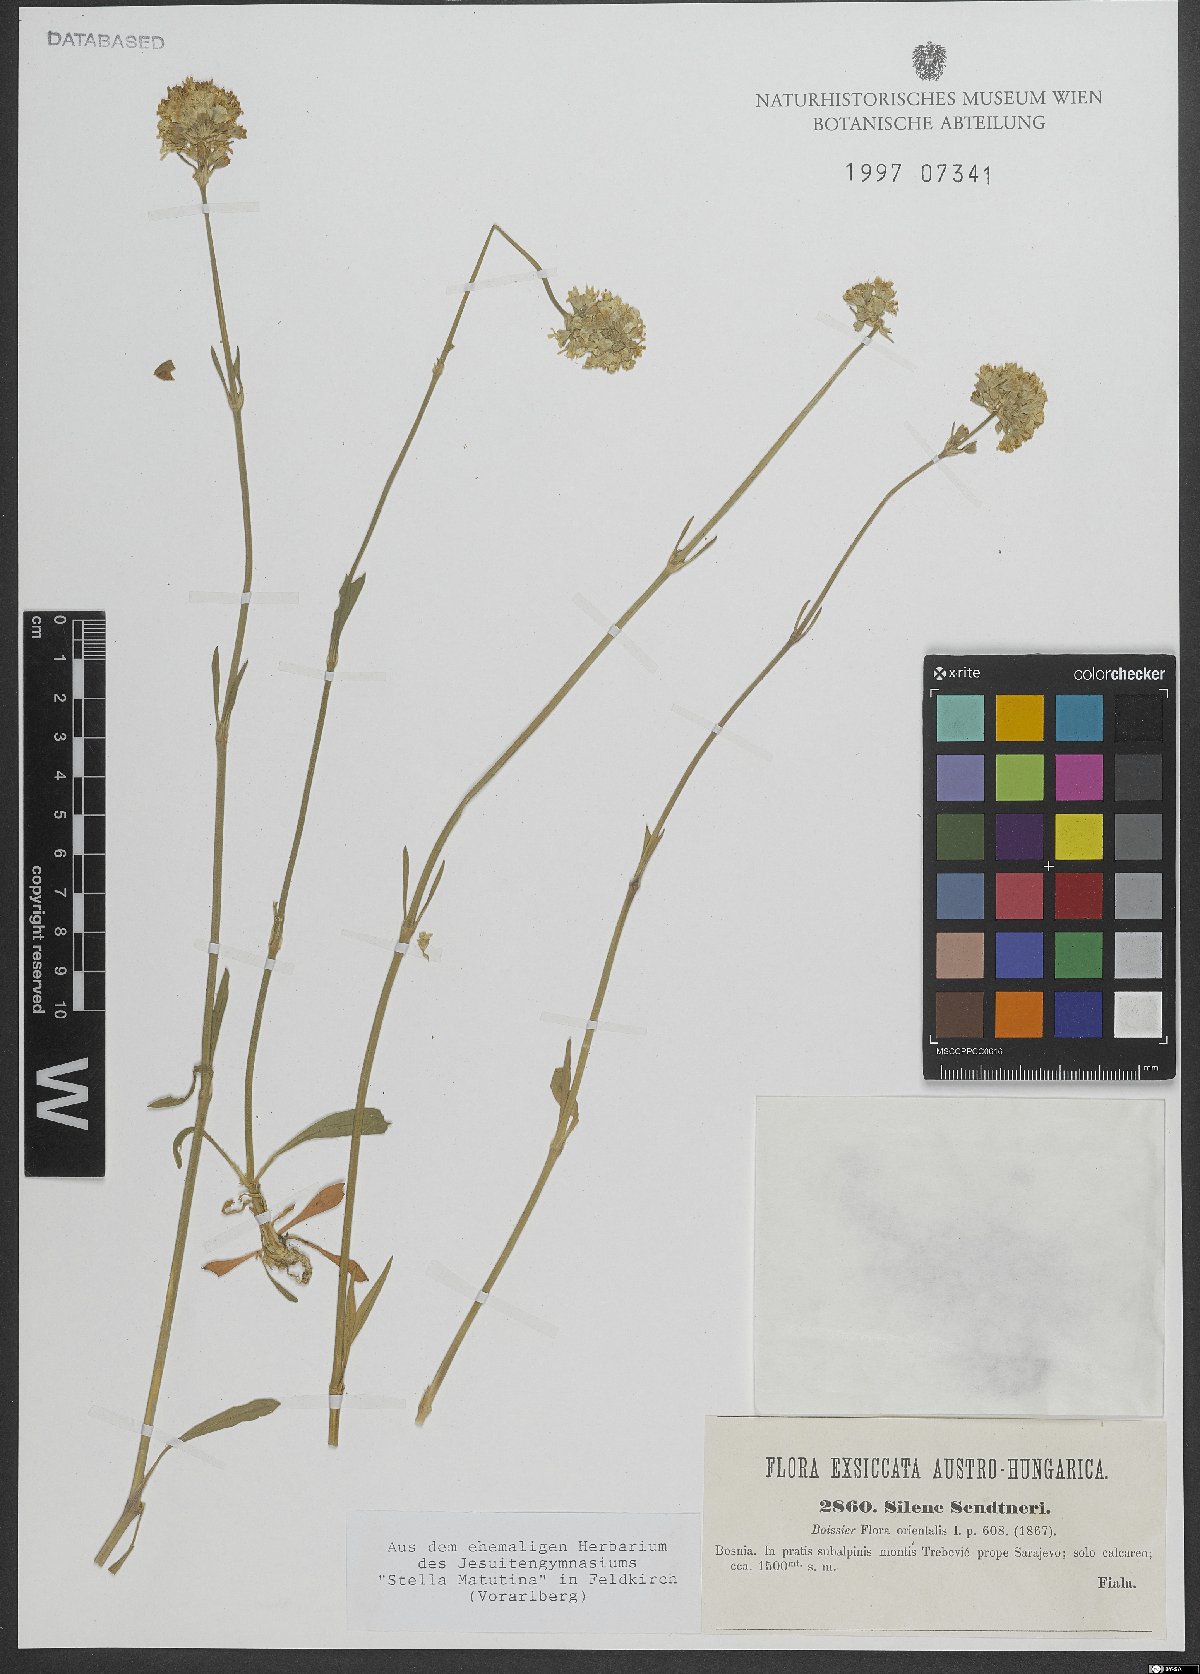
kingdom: Plantae
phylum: Tracheophyta
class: Magnoliopsida
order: Caryophyllales
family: Caryophyllaceae
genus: Silene
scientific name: Silene sendtneri
